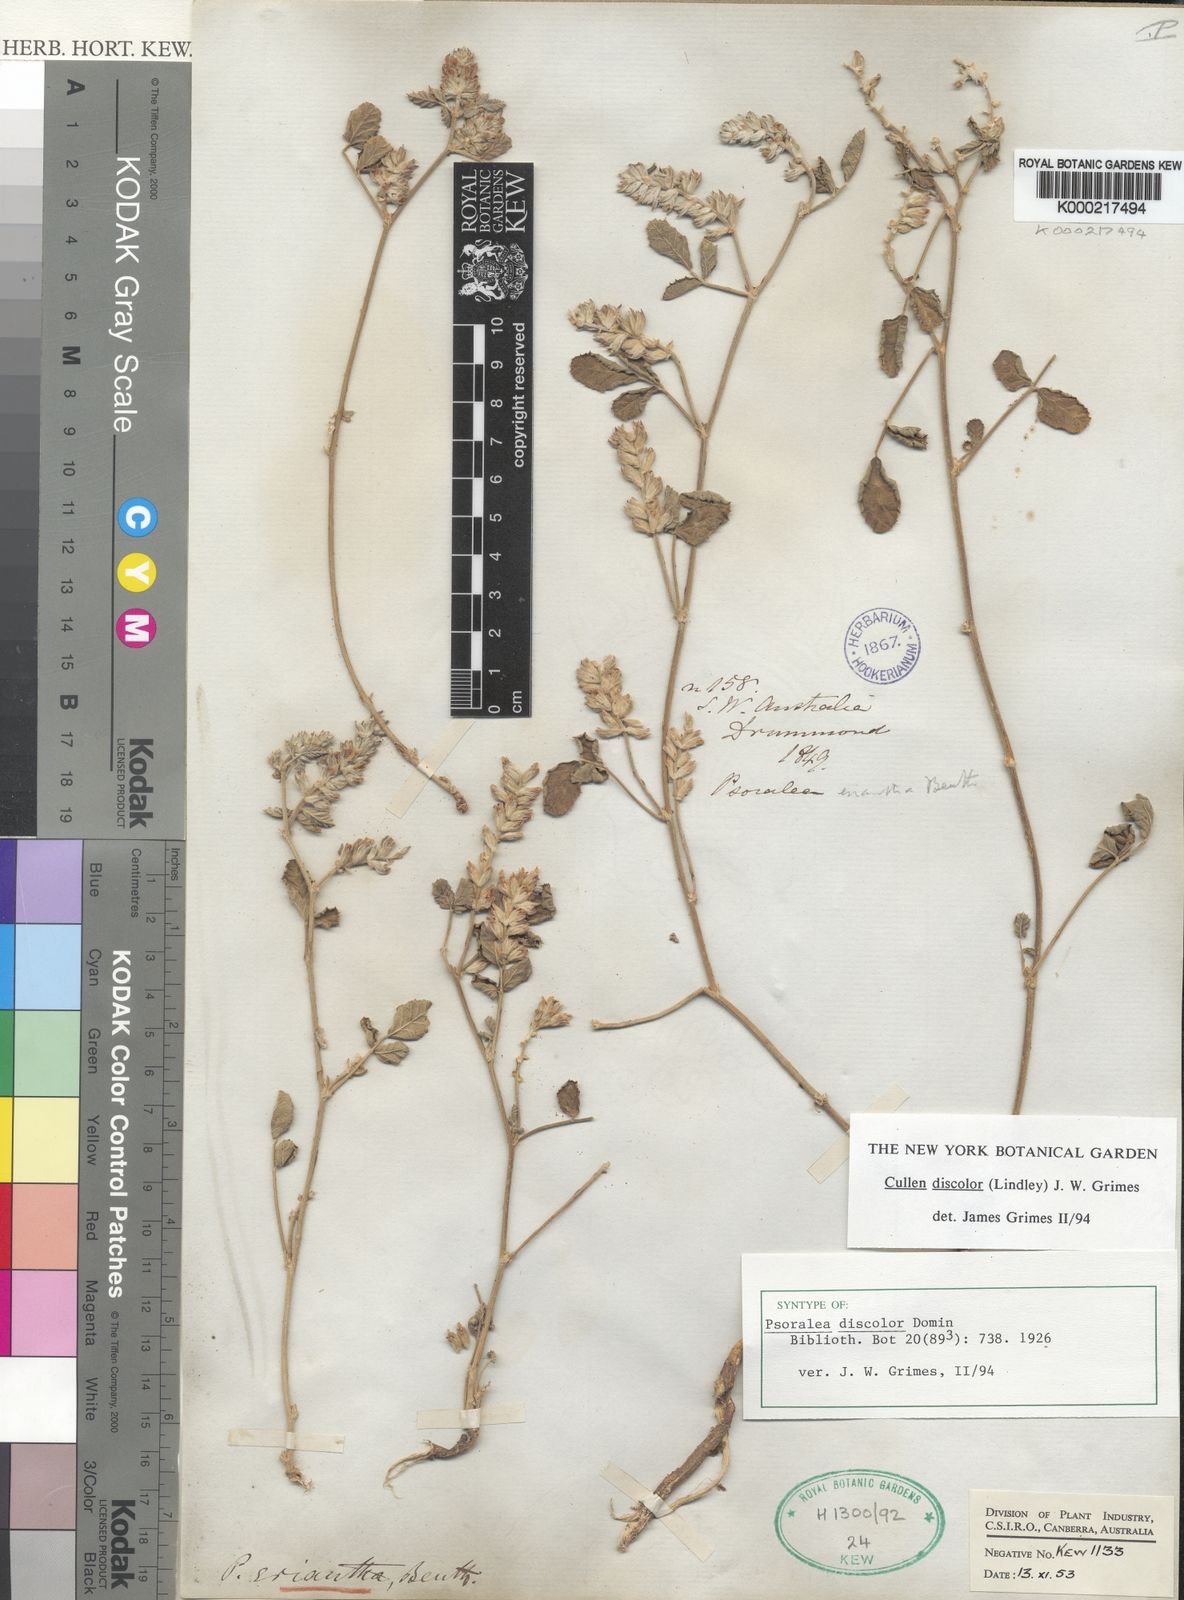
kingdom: Plantae
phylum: Tracheophyta
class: Magnoliopsida
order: Fabales
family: Fabaceae
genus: Cullen
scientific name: Cullen discolor
